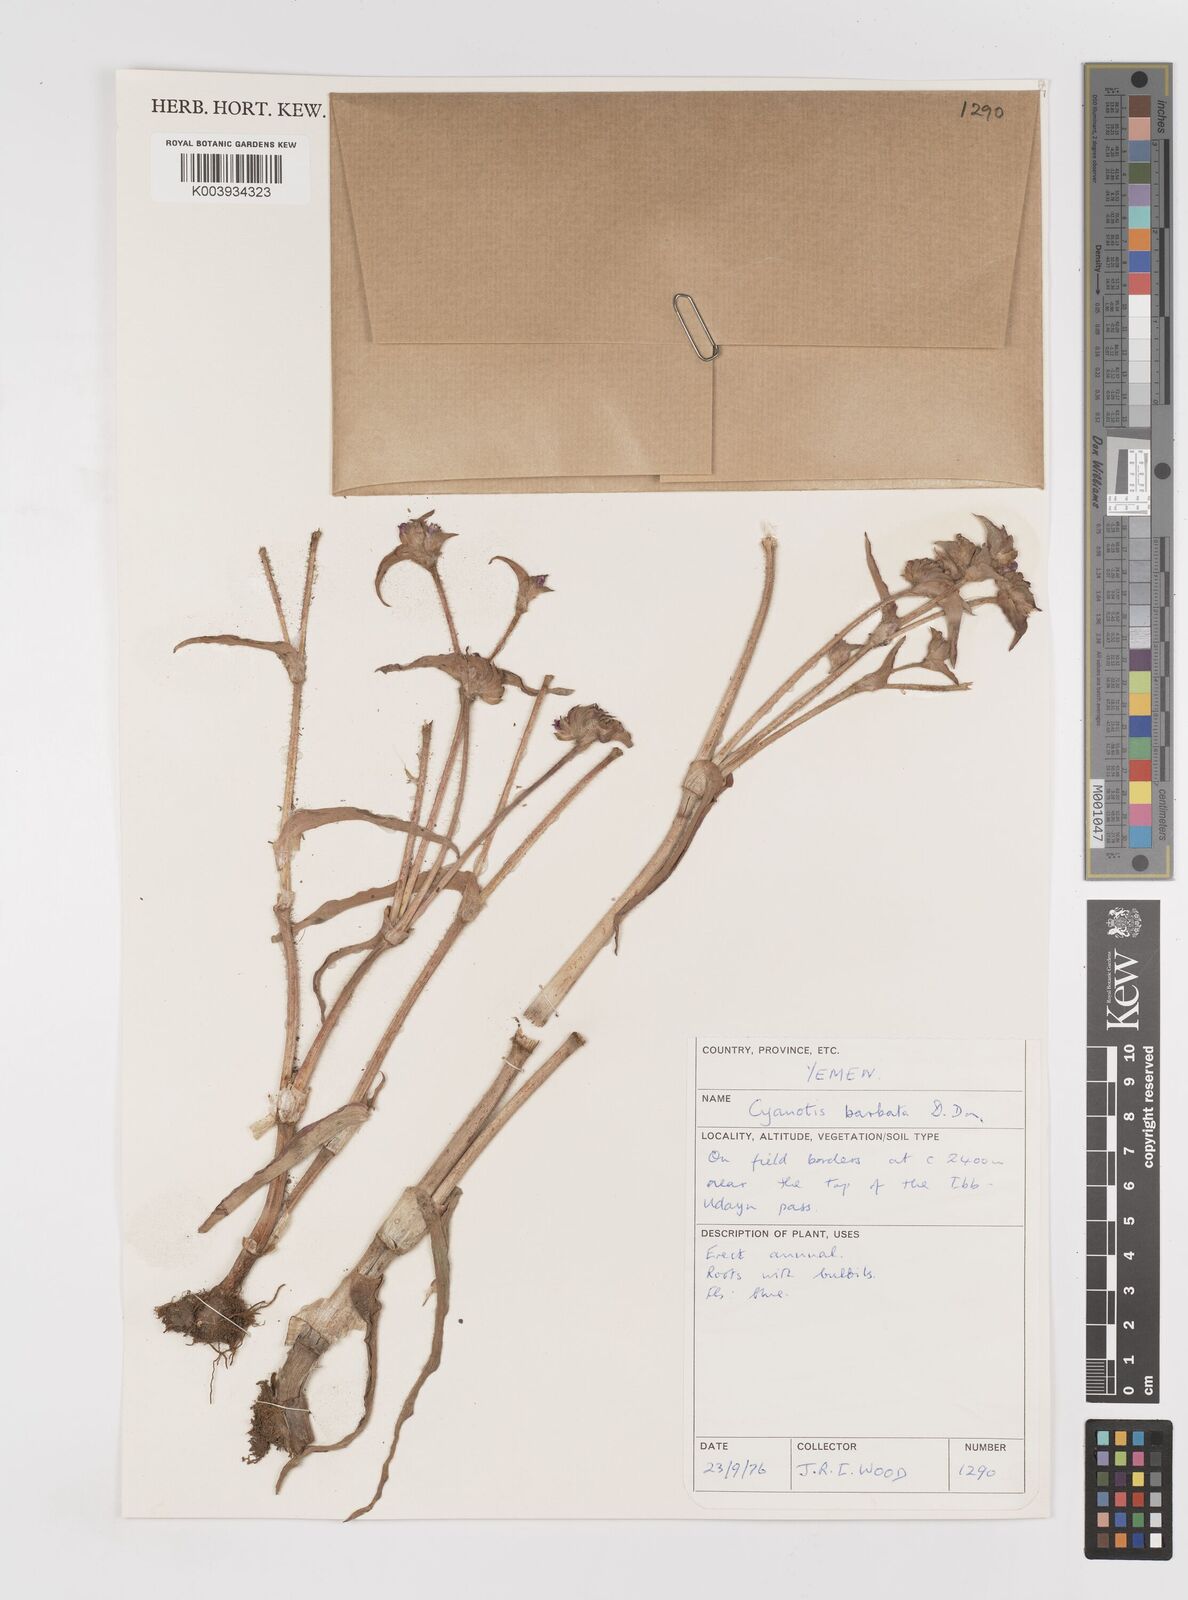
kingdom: Plantae
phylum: Tracheophyta
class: Liliopsida
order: Commelinales
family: Commelinaceae
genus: Cyanotis
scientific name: Cyanotis vaga
